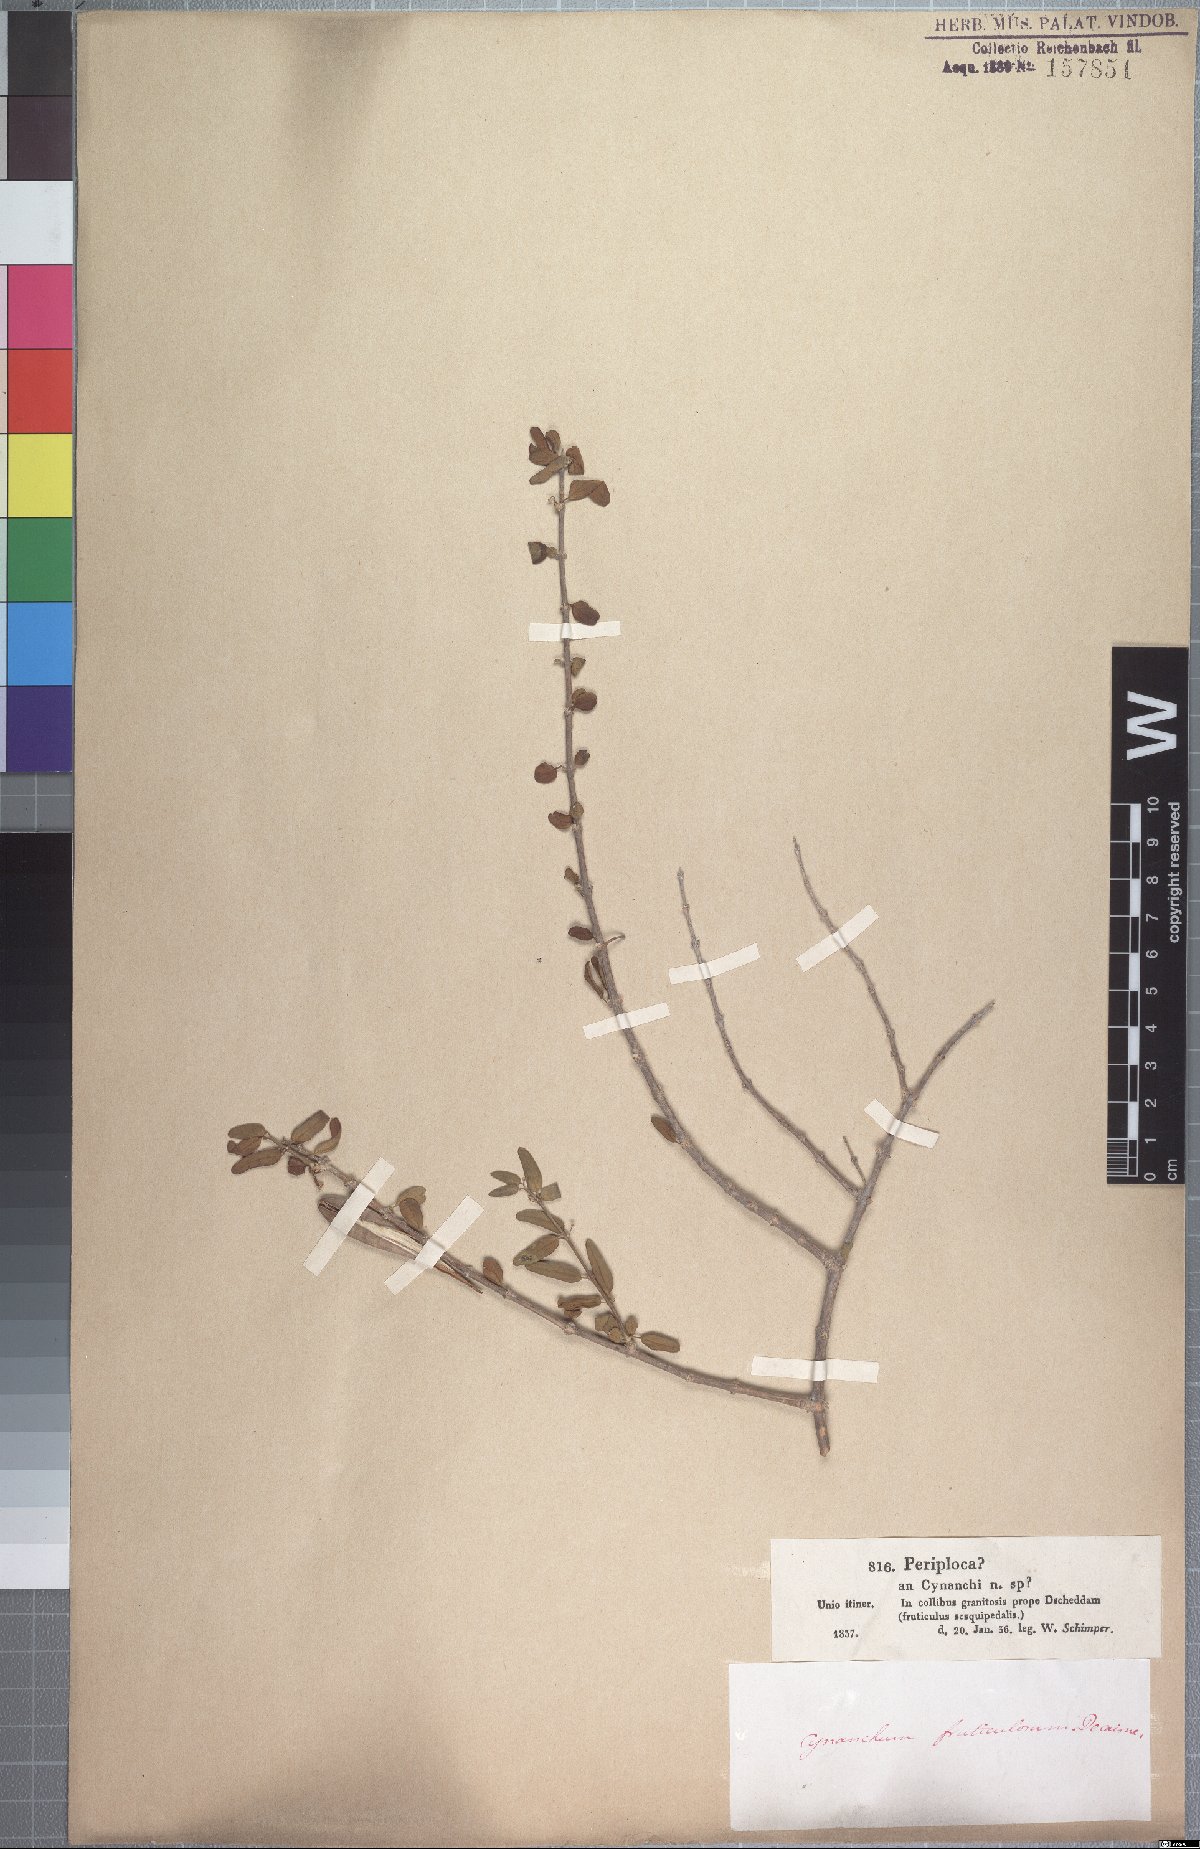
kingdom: Plantae
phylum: Tracheophyta
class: Liliopsida
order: Poales
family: Poaceae
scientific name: Poaceae
